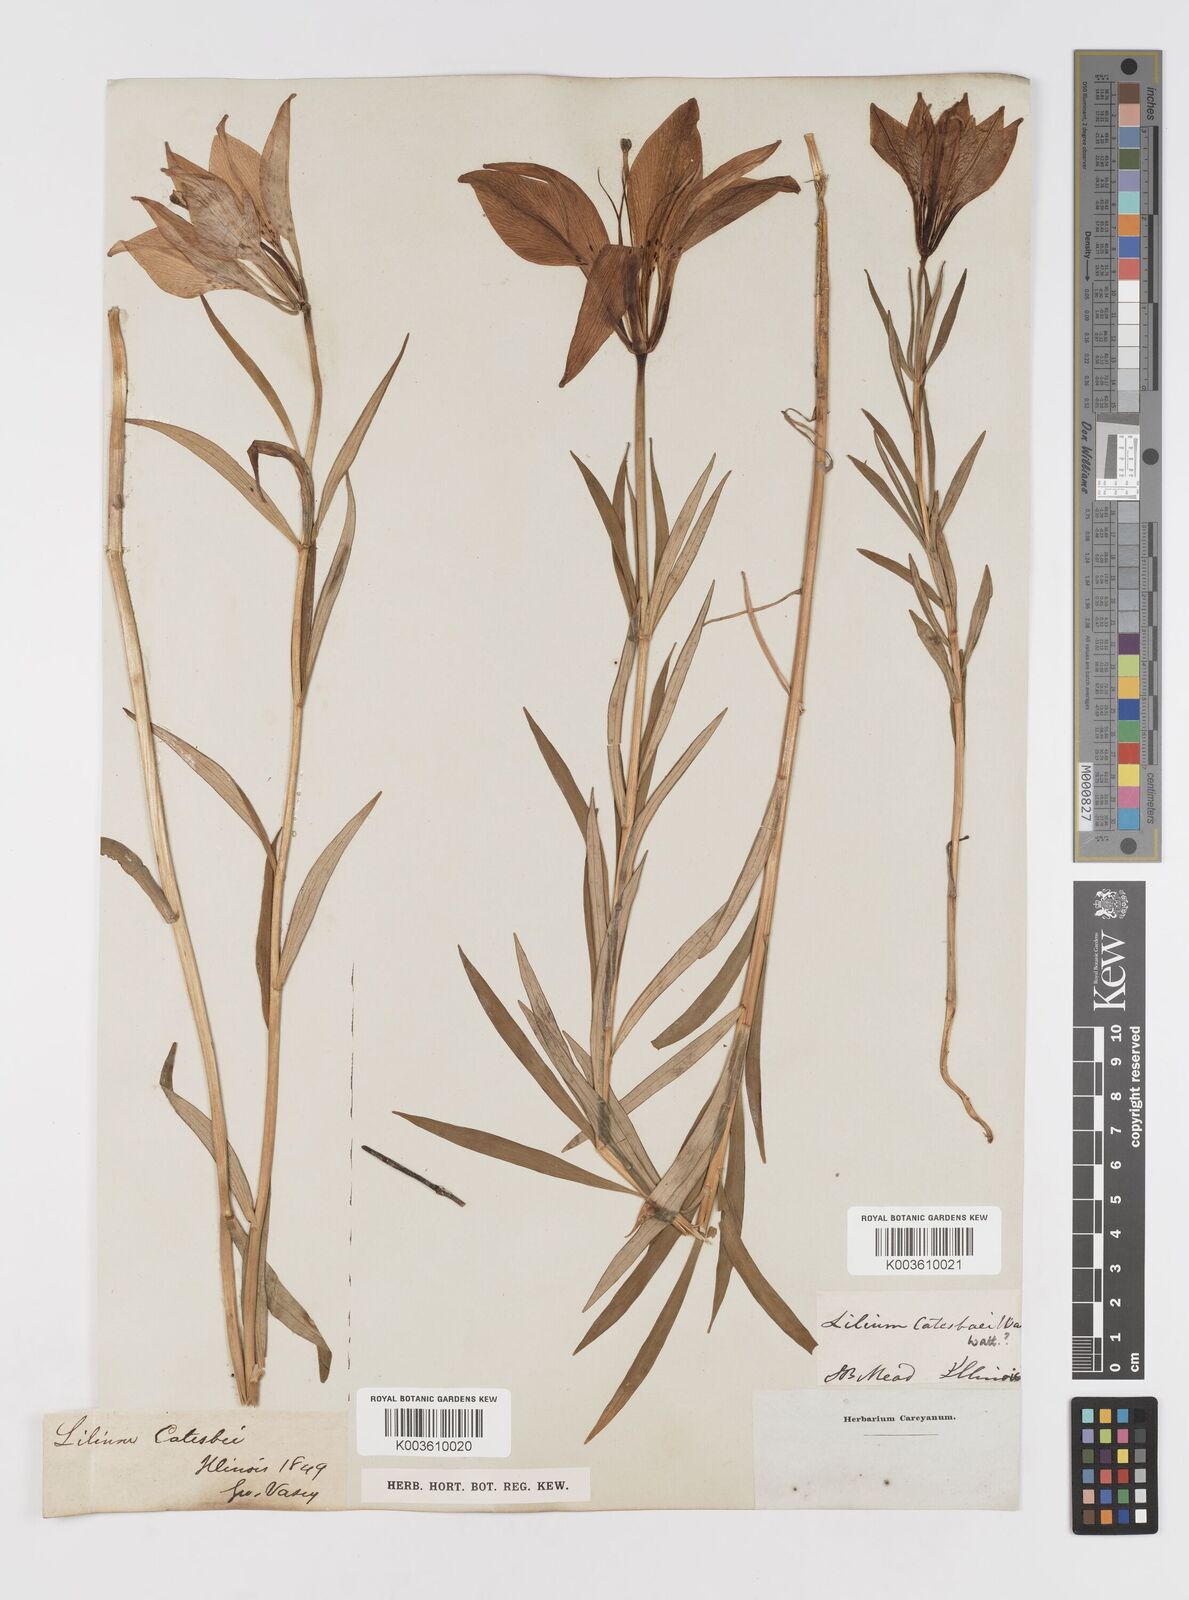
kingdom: Plantae
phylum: Tracheophyta
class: Liliopsida
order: Liliales
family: Liliaceae
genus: Lilium
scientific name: Lilium catesbaei
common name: Catesby's lily
